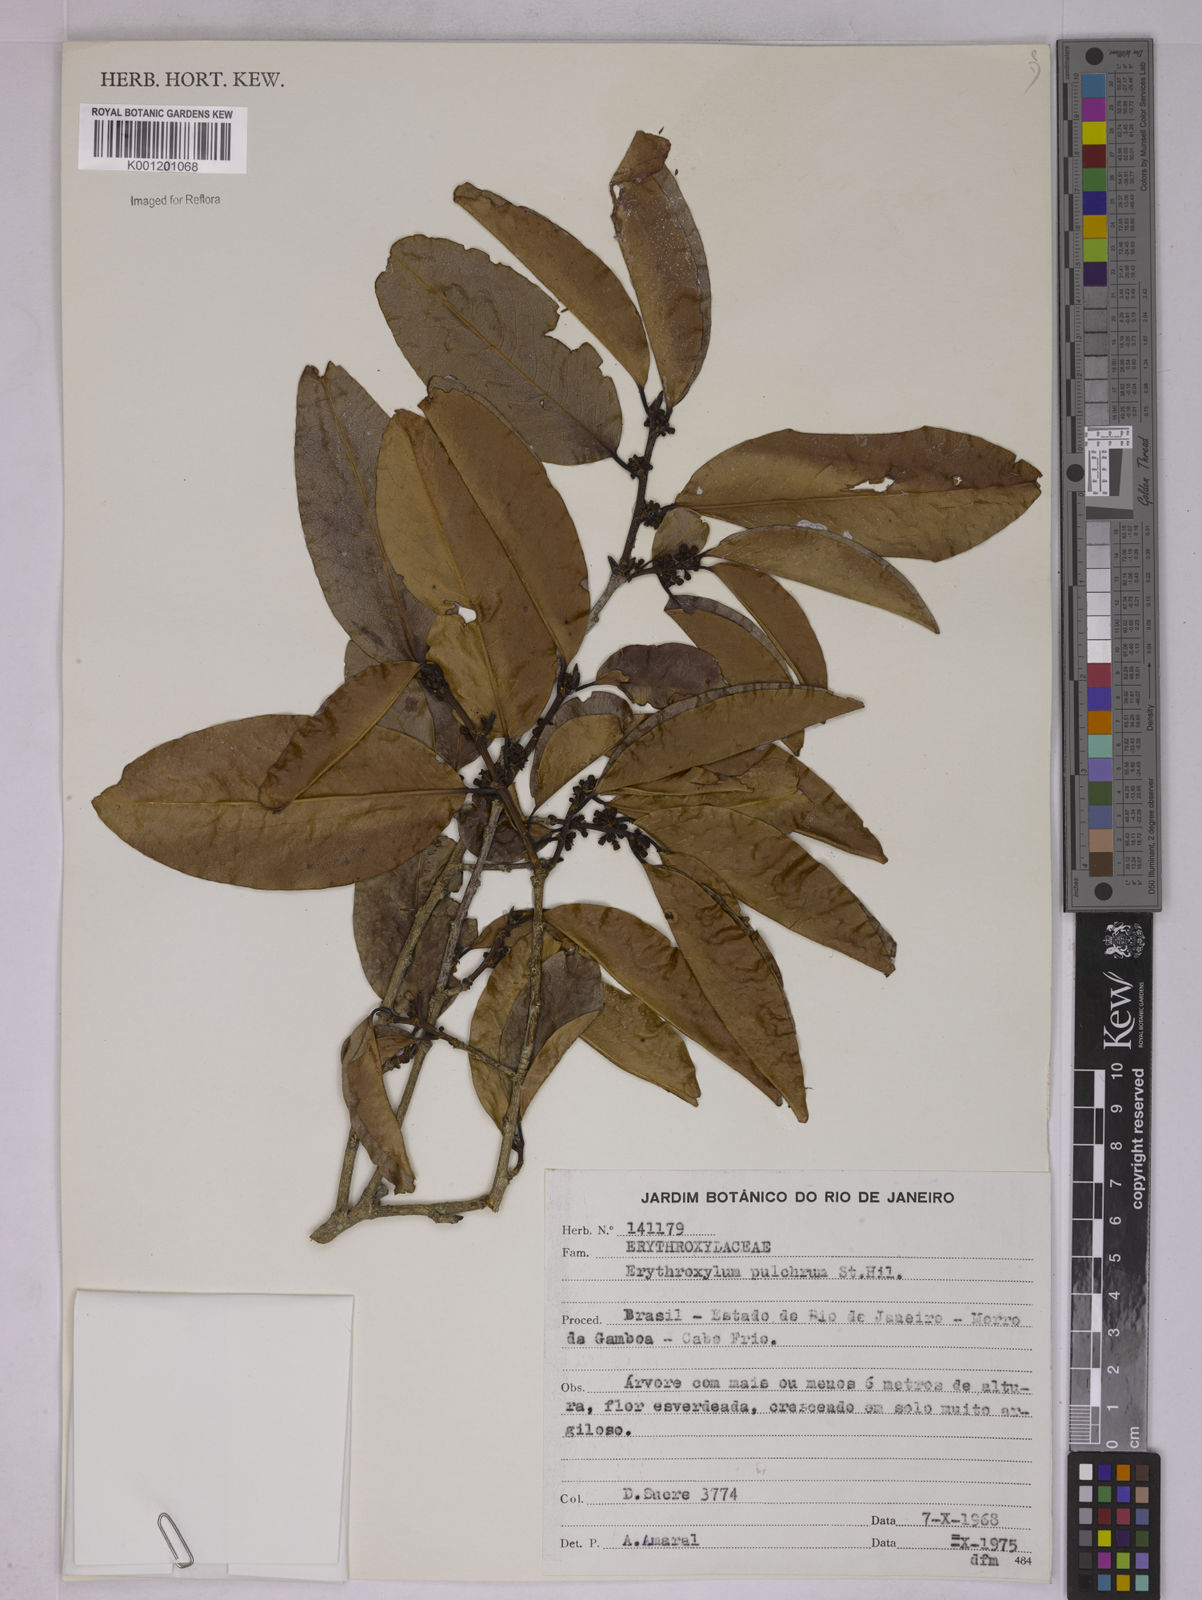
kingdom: Plantae
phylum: Tracheophyta
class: Magnoliopsida
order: Malpighiales
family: Erythroxylaceae
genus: Erythroxylum
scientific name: Erythroxylum pulchrum
